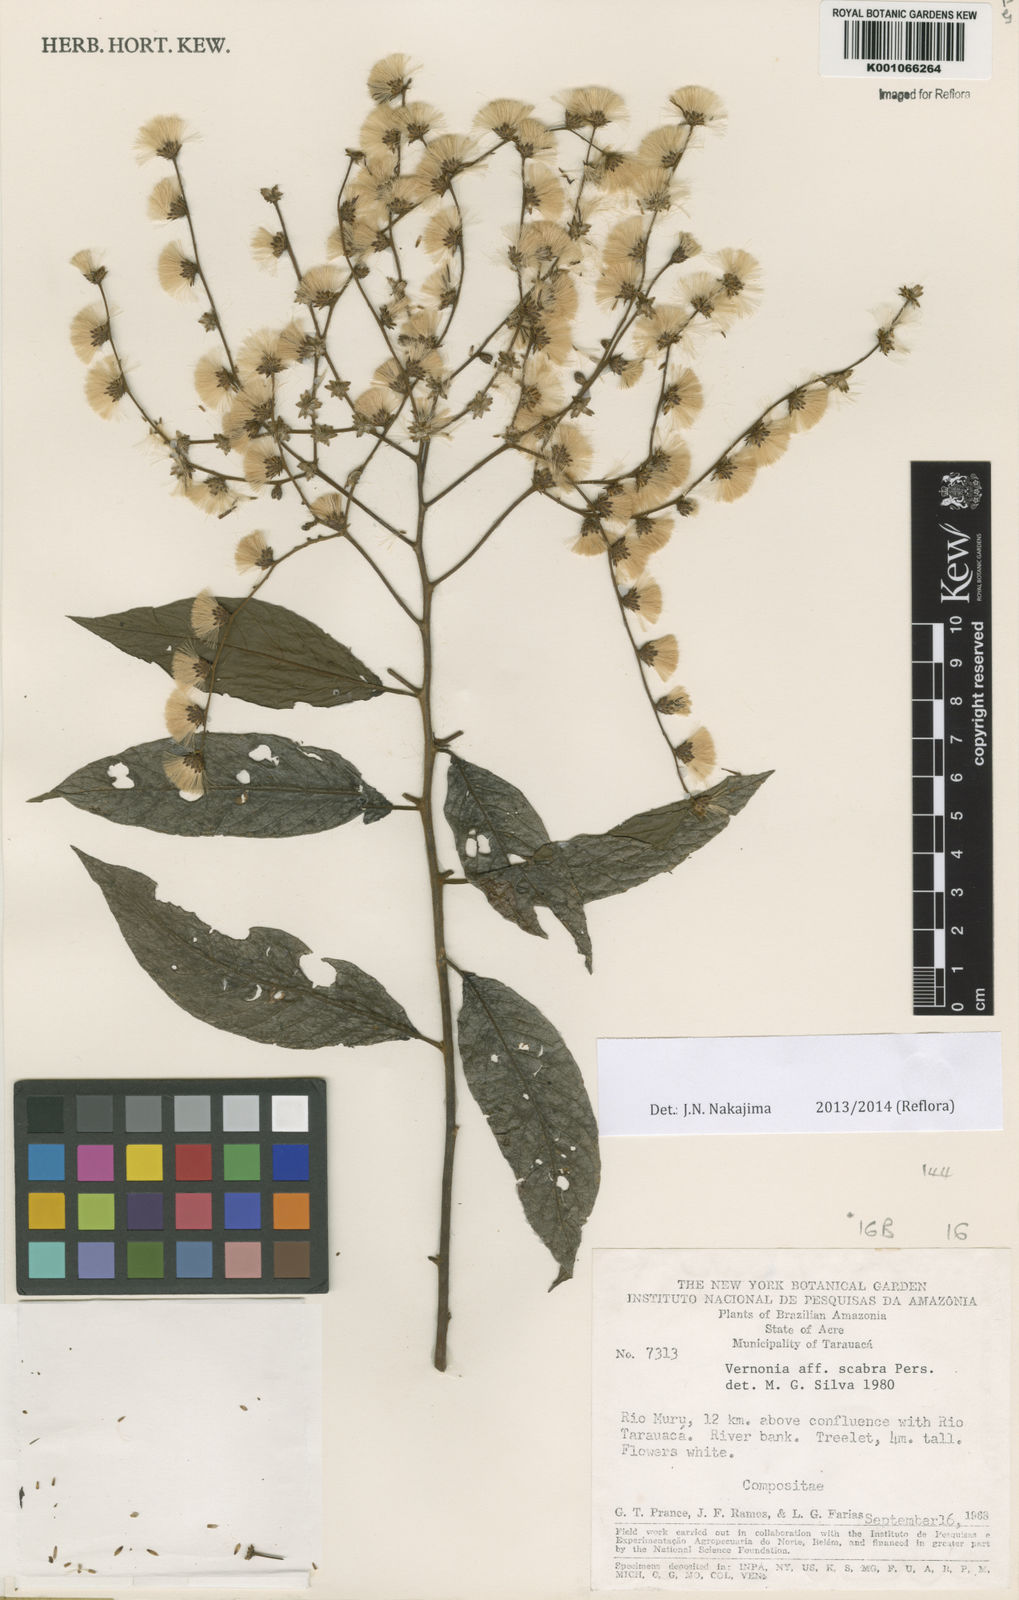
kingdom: Plantae
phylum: Tracheophyta
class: Magnoliopsida
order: Asterales
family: Asteraceae
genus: Vernonia
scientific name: Vernonia
